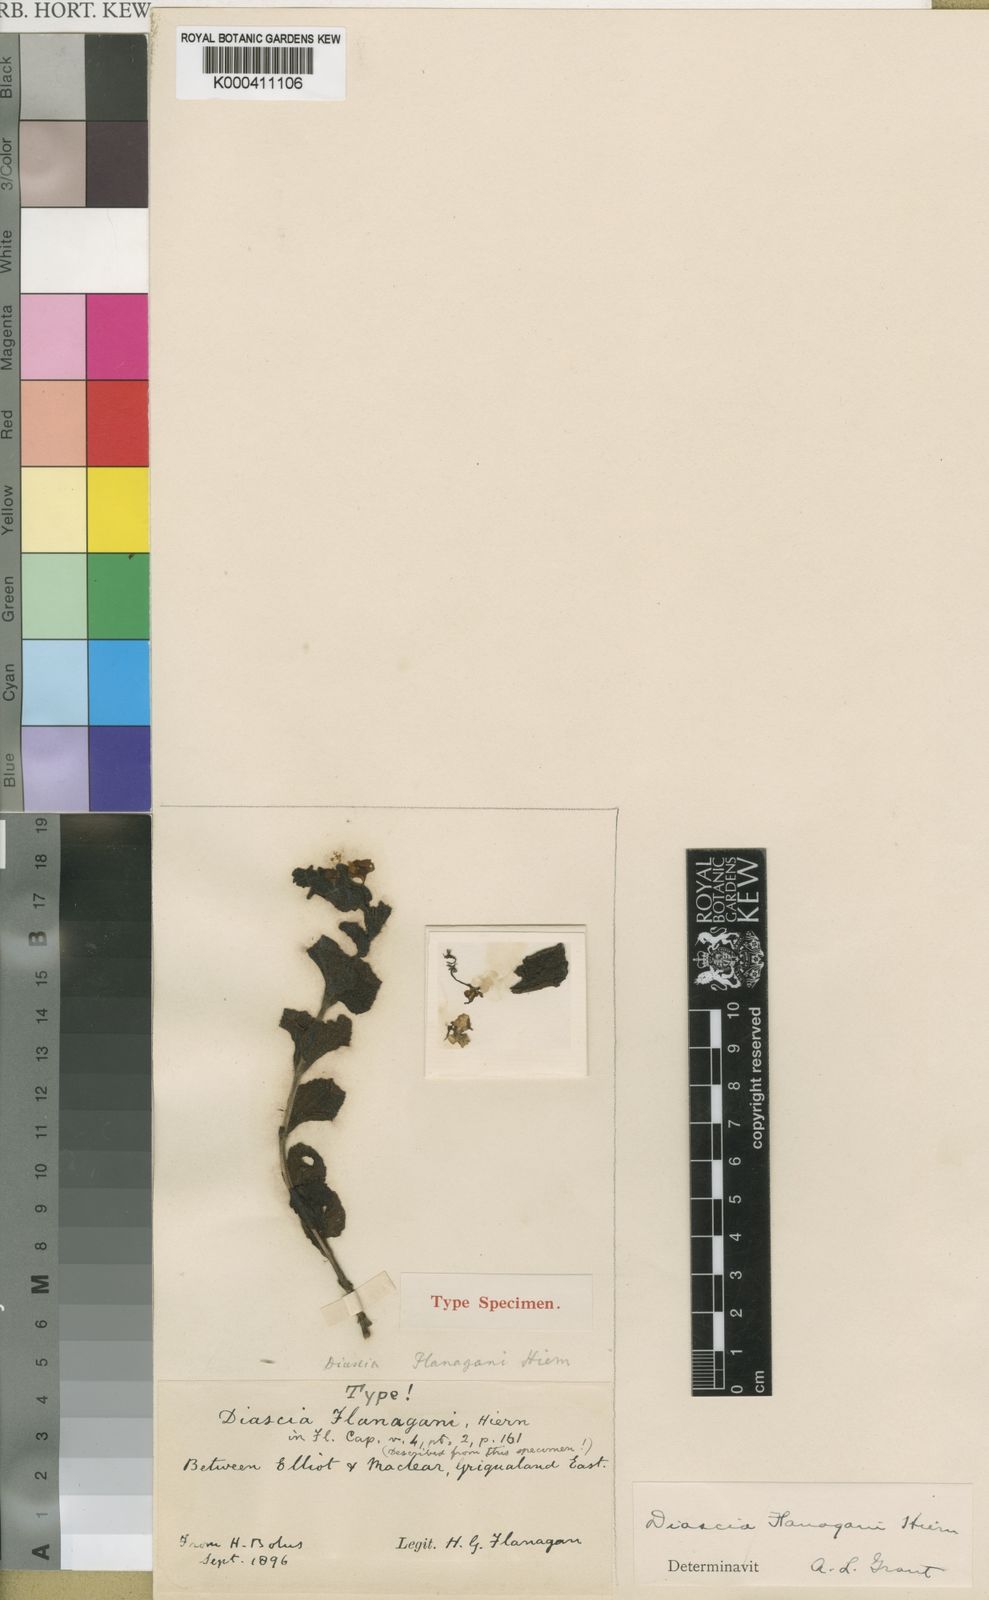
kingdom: Plantae
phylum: Tracheophyta
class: Magnoliopsida
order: Lamiales
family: Scrophulariaceae
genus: Diascia
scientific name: Diascia stachyoides
